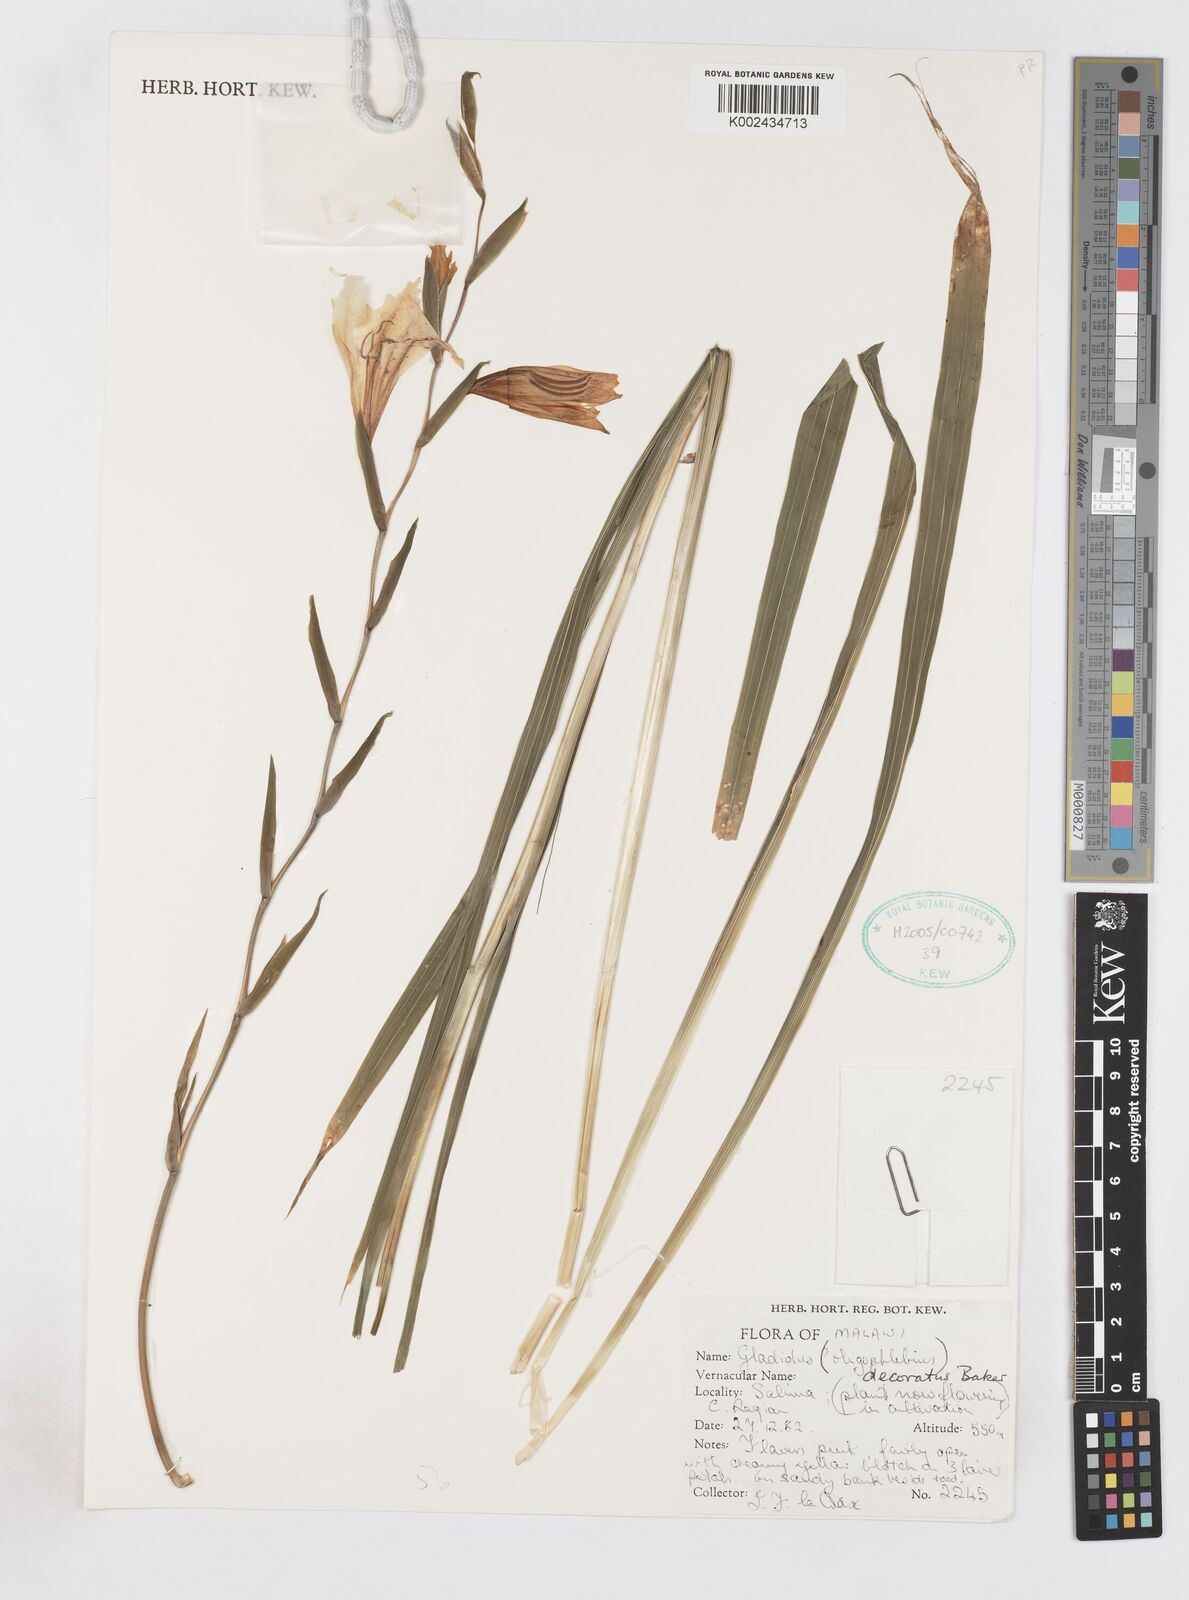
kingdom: Plantae
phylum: Tracheophyta
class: Liliopsida
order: Asparagales
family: Iridaceae
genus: Gladiolus
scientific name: Gladiolus oligophlebius
